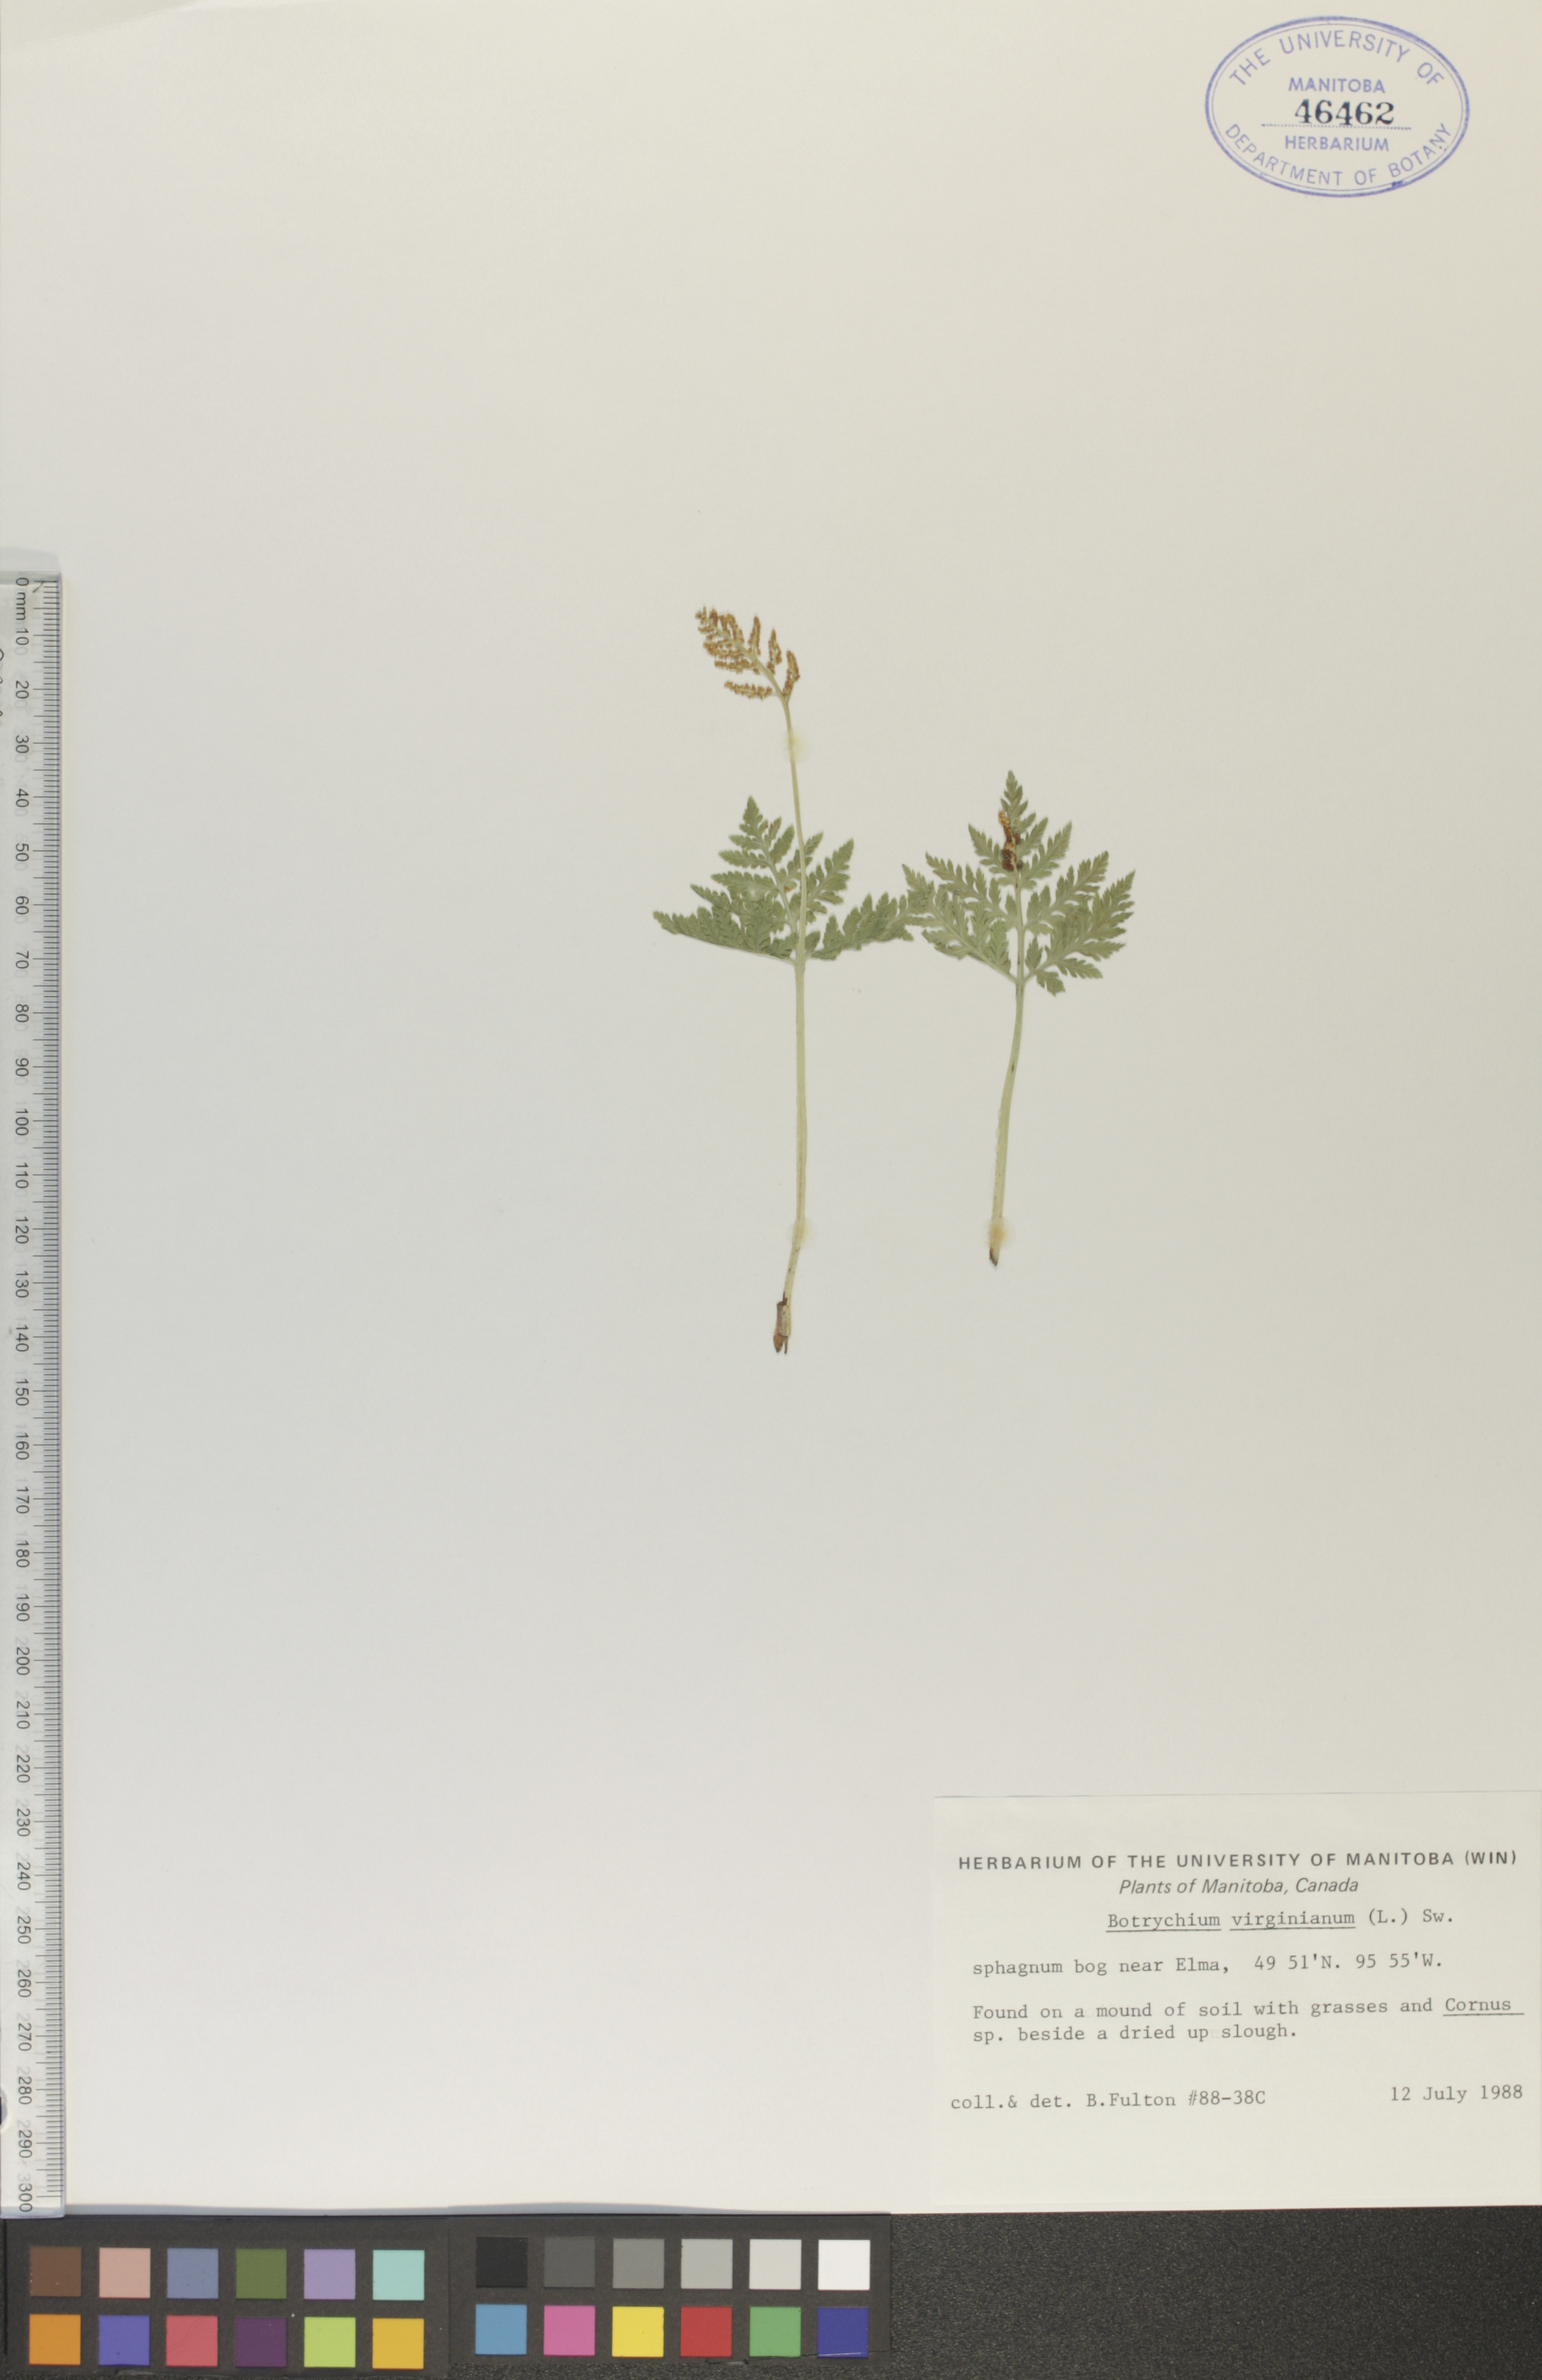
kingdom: Plantae
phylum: Tracheophyta
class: Polypodiopsida
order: Ophioglossales
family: Ophioglossaceae
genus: Botrypus
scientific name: Botrypus virginianus
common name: Common grapefern
